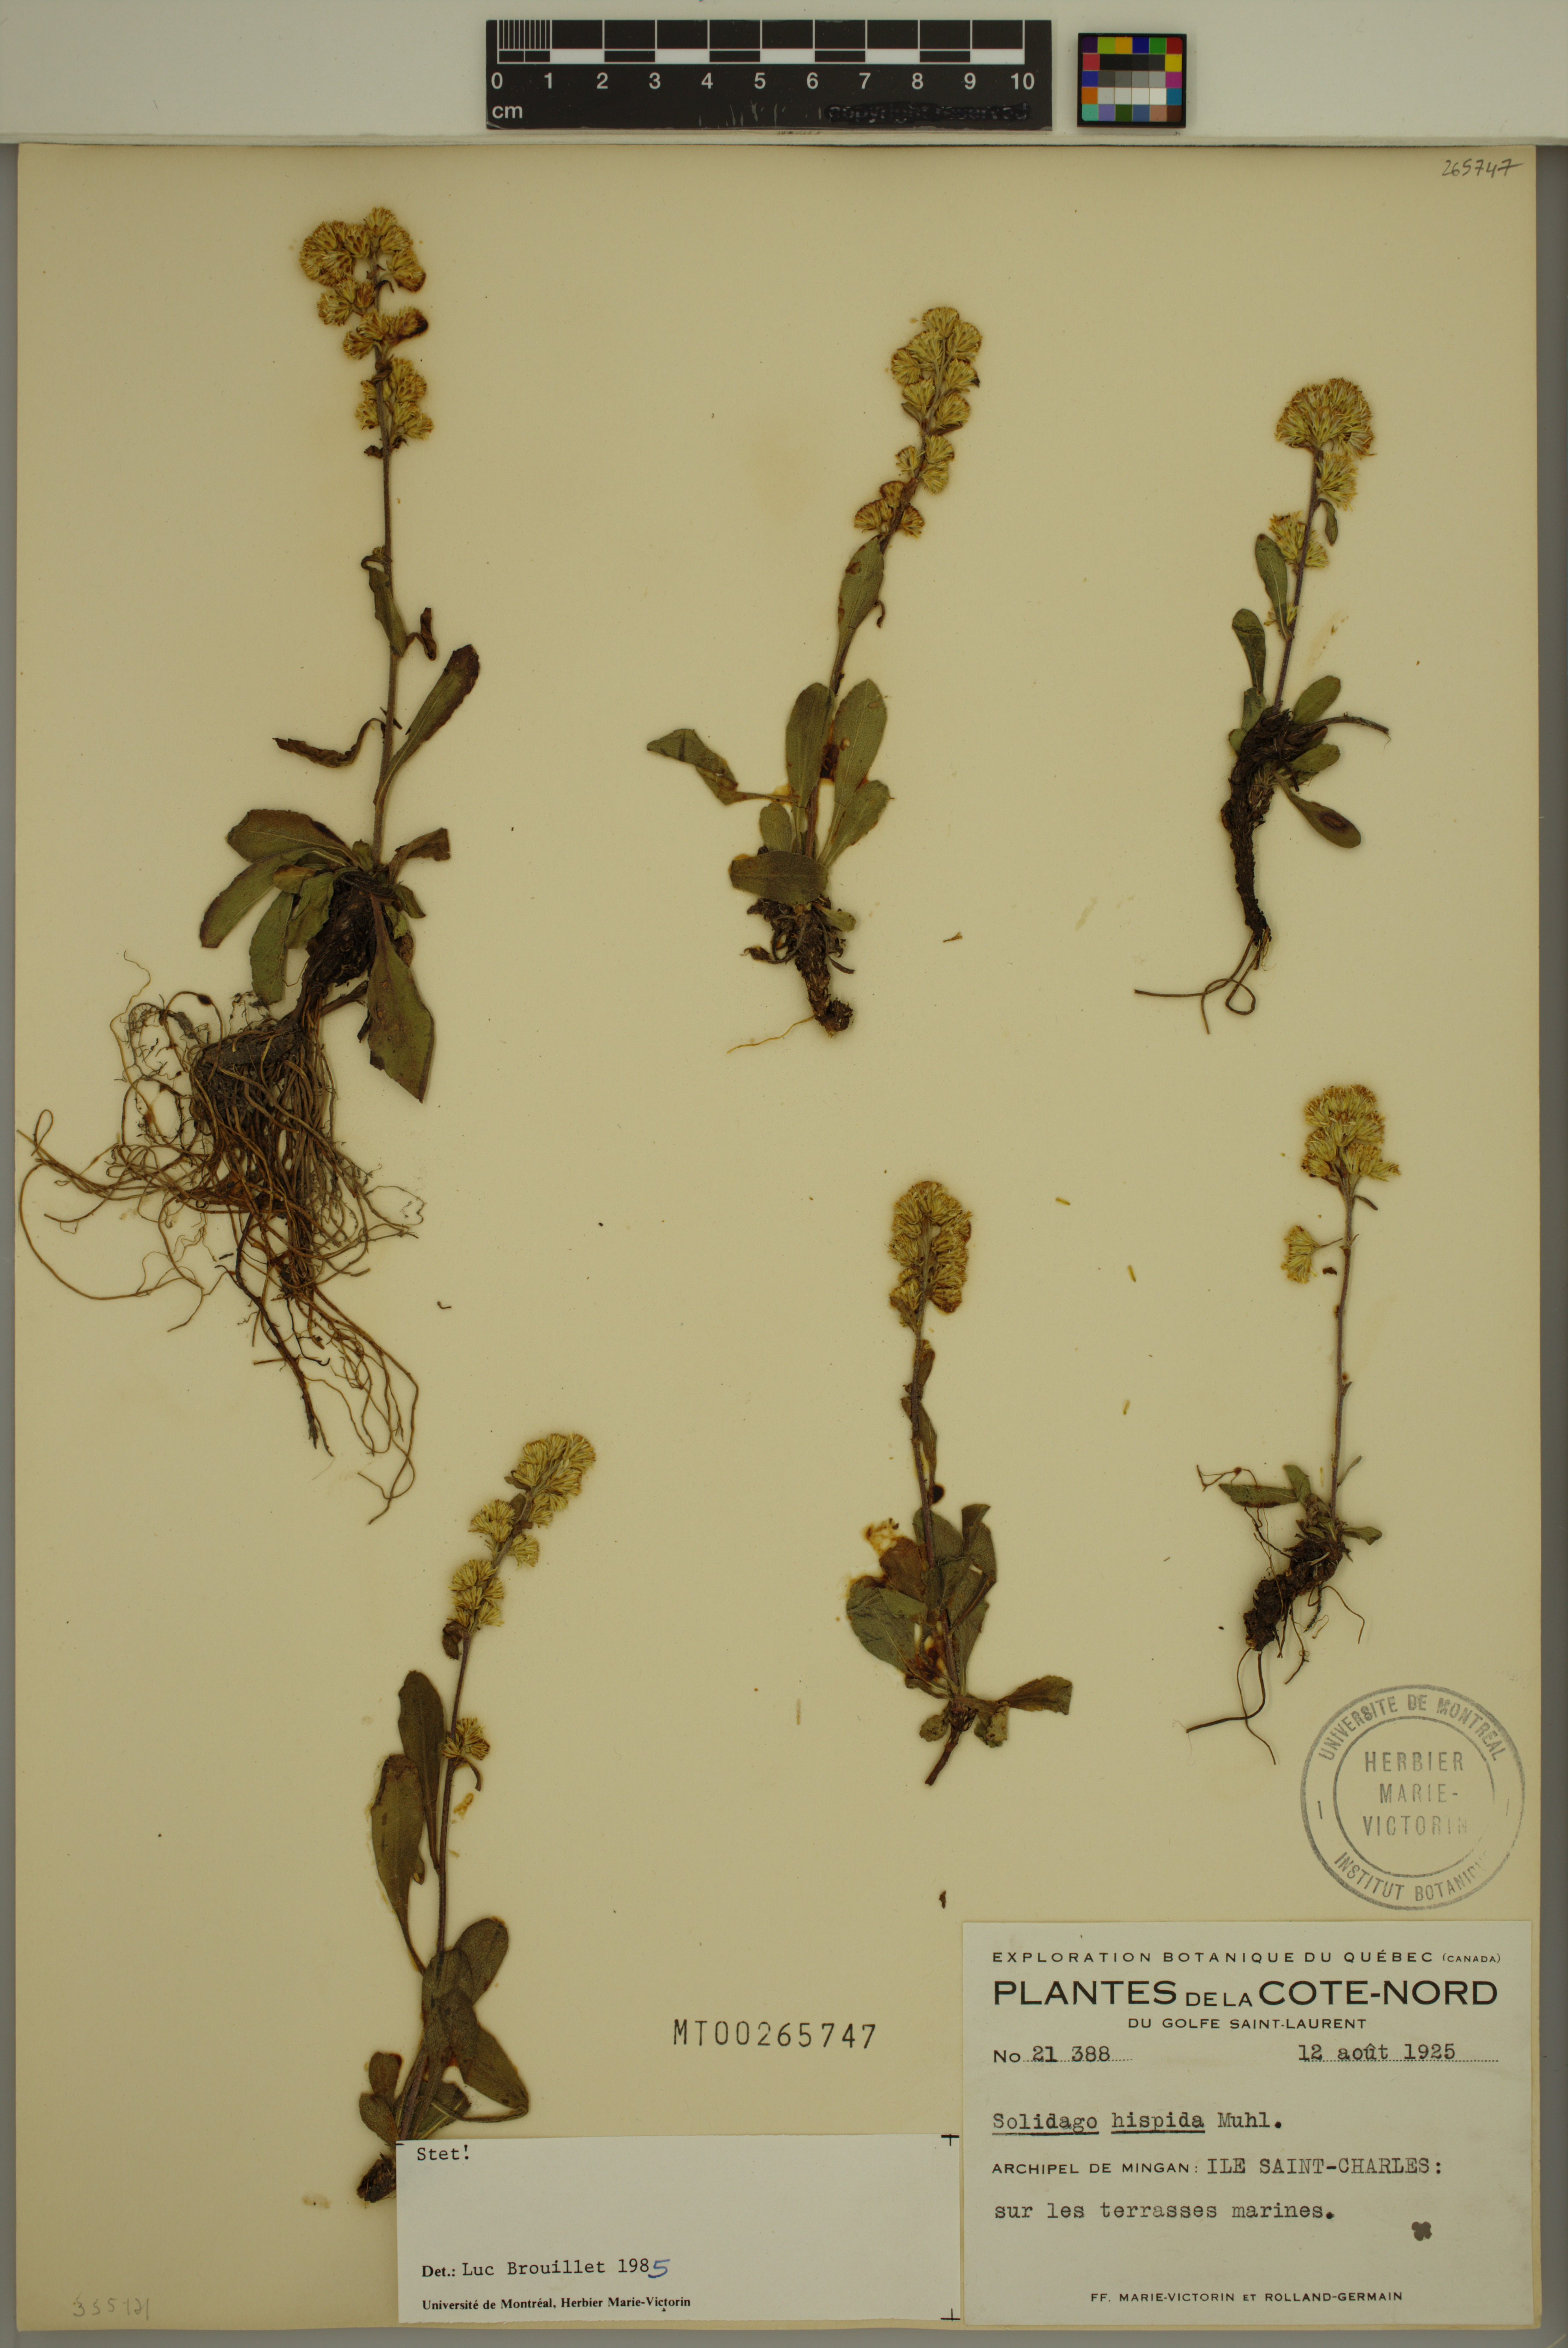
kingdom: Plantae
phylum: Tracheophyta
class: Magnoliopsida
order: Asterales
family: Asteraceae
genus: Solidago
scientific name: Solidago hispida
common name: Hairy goldenrod
